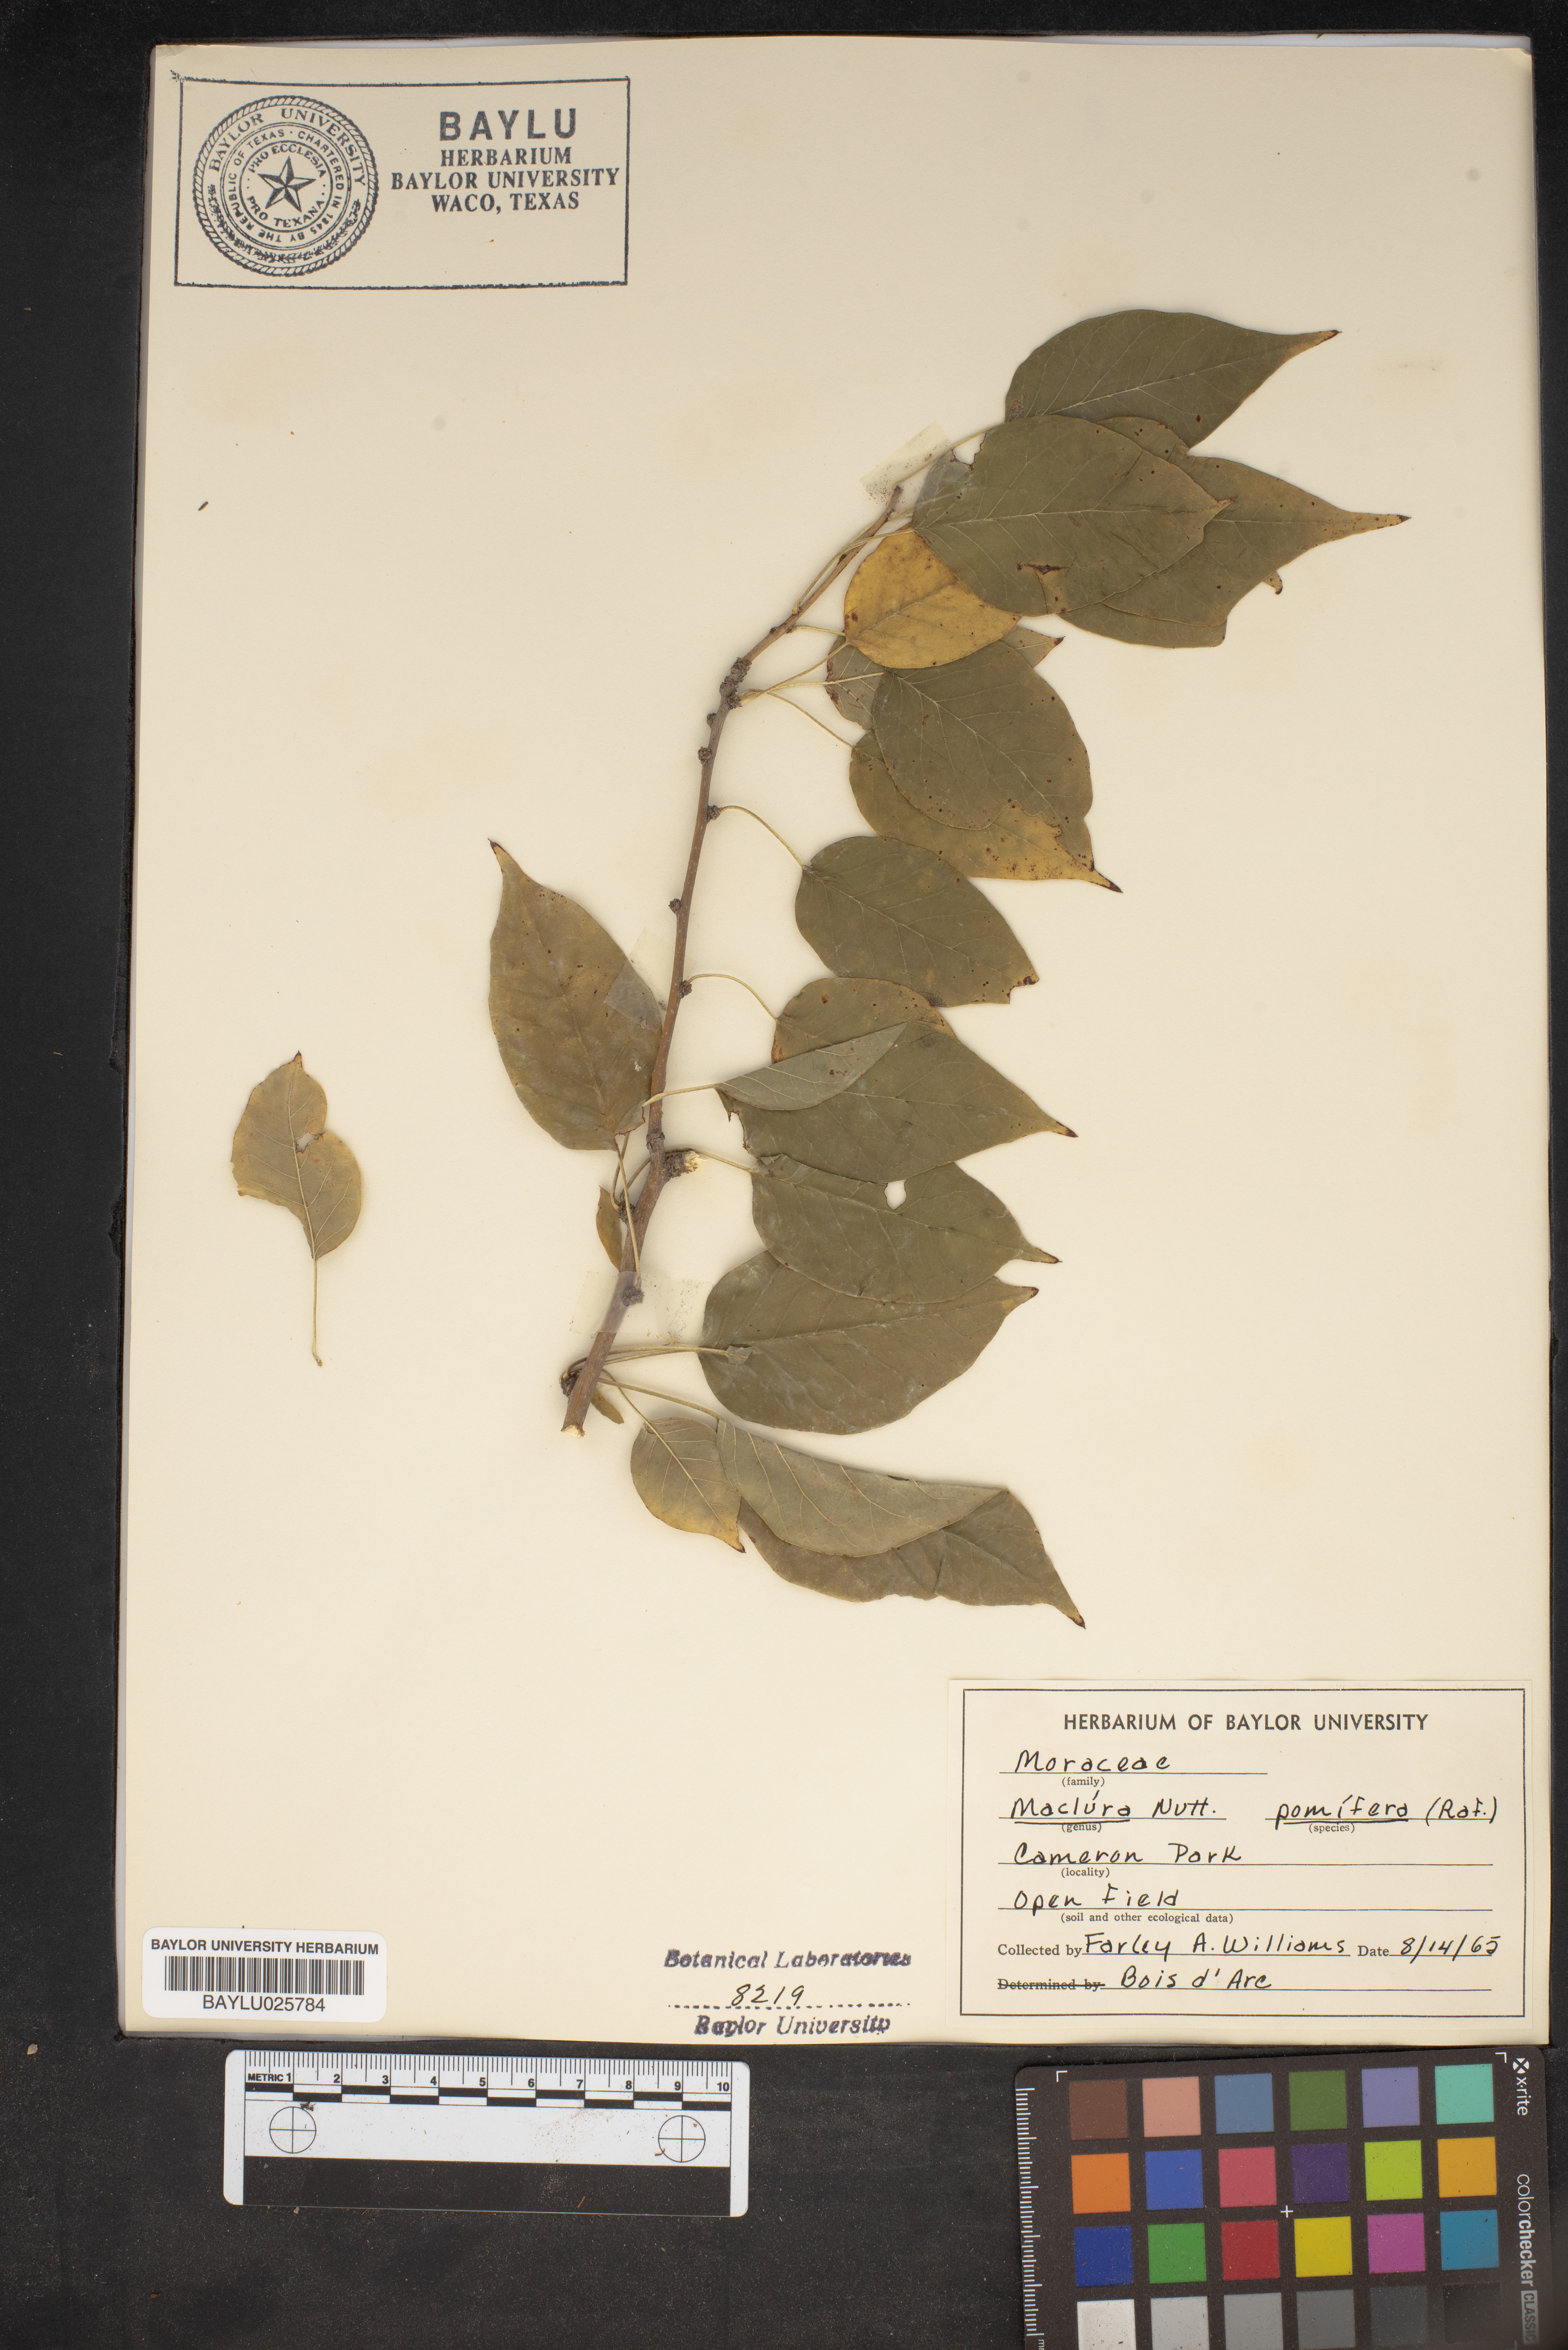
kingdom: Plantae
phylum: Tracheophyta
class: Magnoliopsida
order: Rosales
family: Moraceae
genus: Maclura
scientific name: Maclura pomifera
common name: Osage-orange
